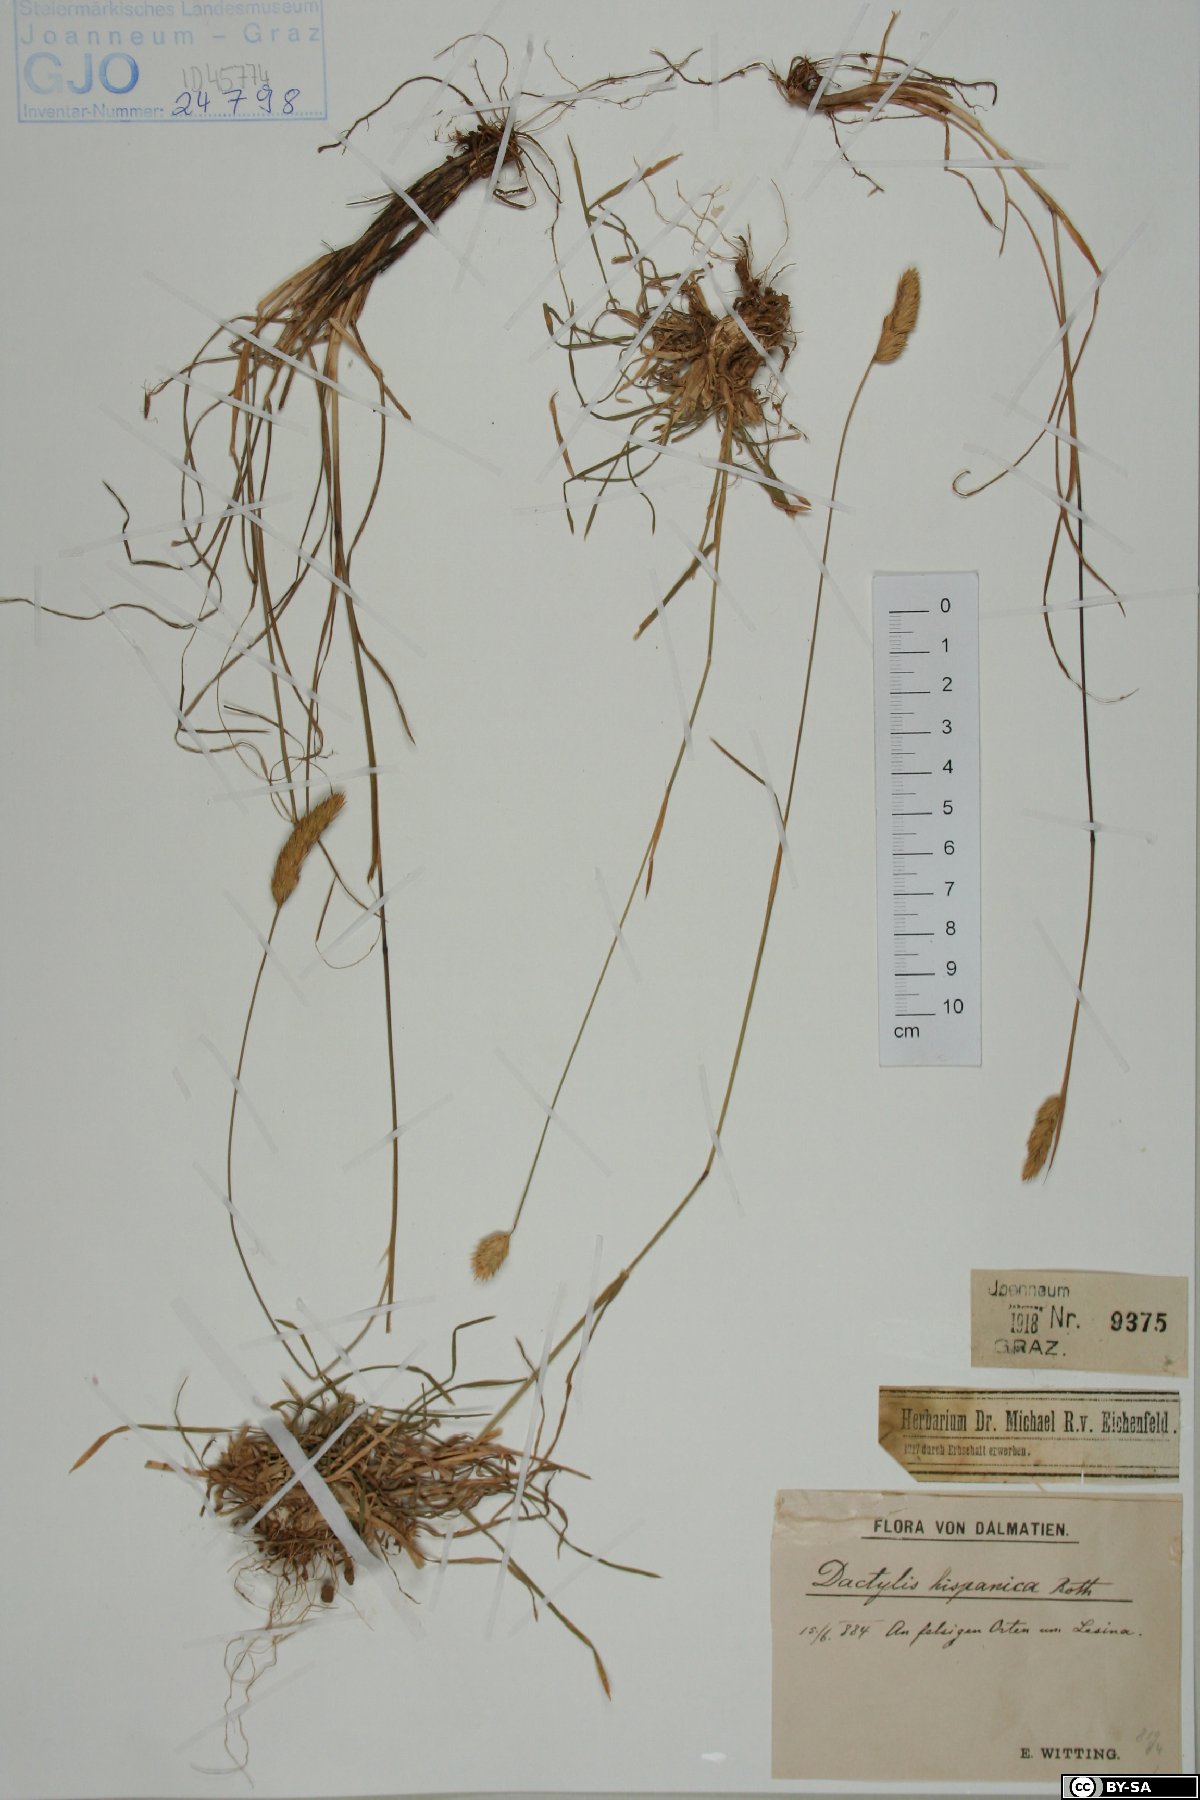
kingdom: Plantae
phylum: Tracheophyta
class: Liliopsida
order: Poales
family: Poaceae
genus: Dactylis
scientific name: Dactylis glomerata
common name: Orchardgrass
